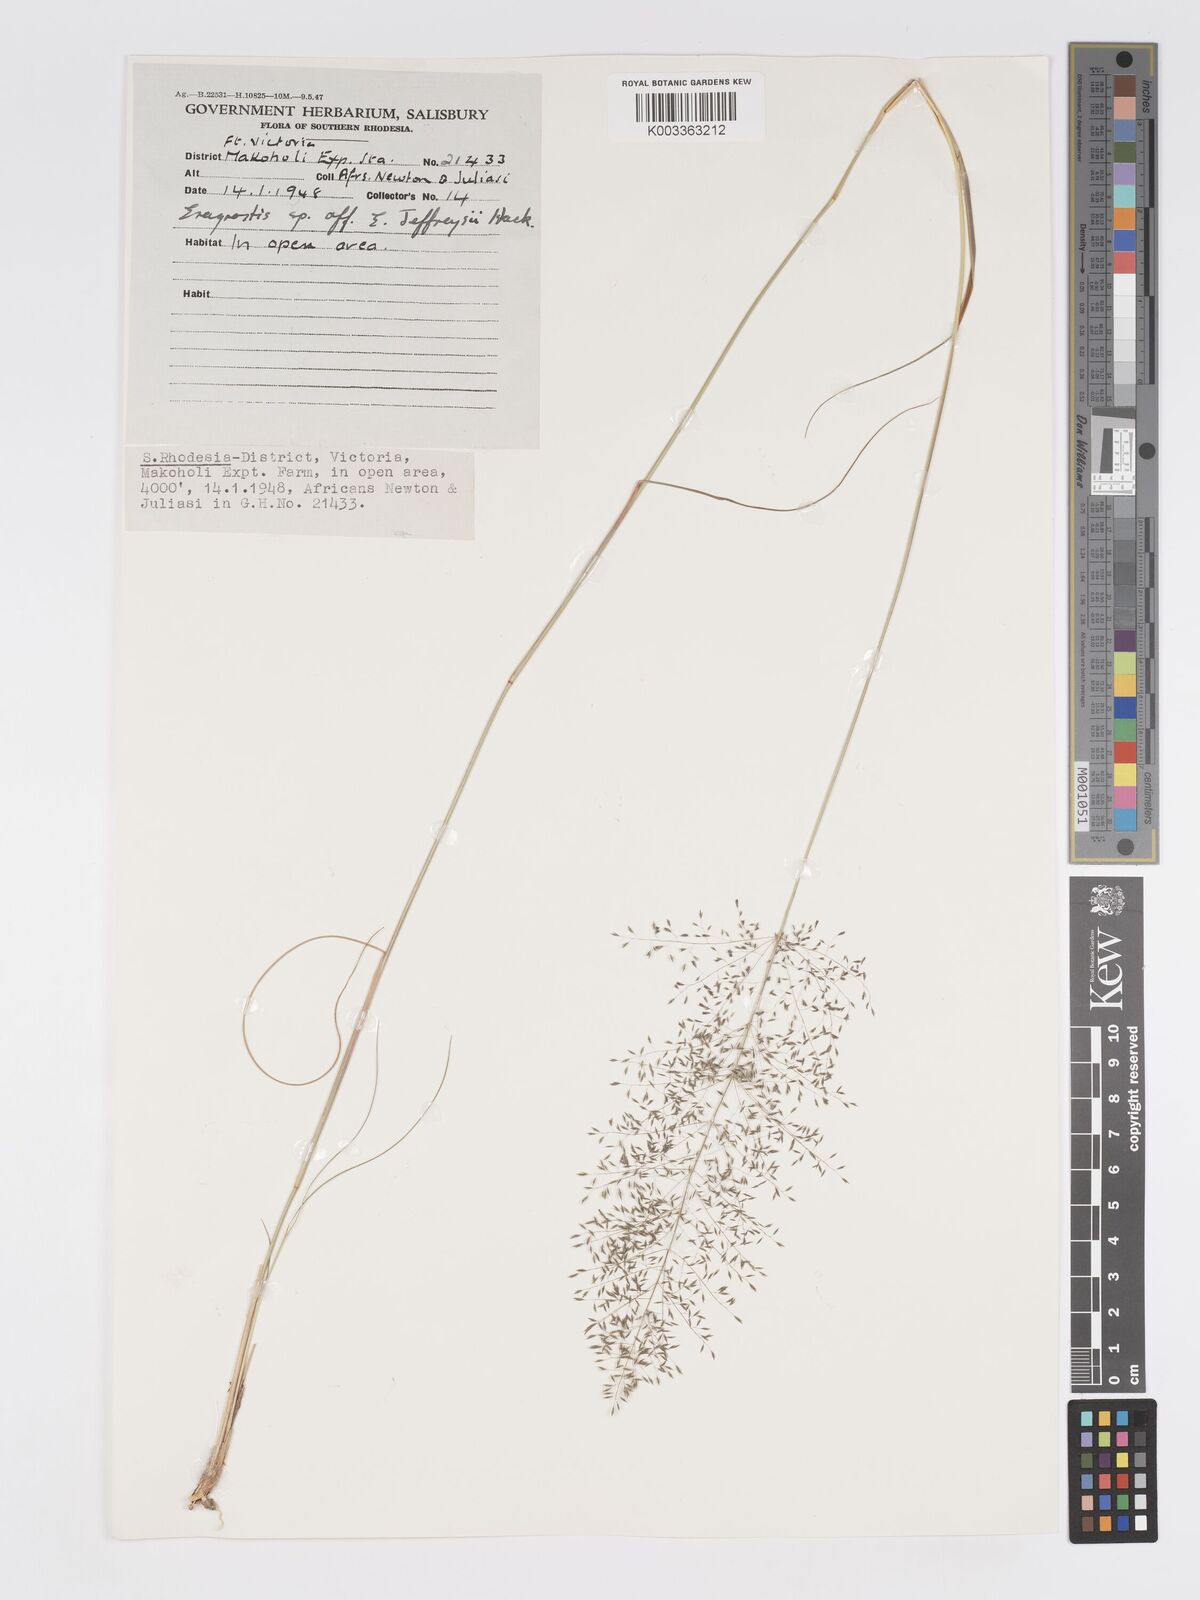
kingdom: Plantae
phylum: Tracheophyta
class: Liliopsida
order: Poales
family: Poaceae
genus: Eragrostis
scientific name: Eragrostis stapfii
